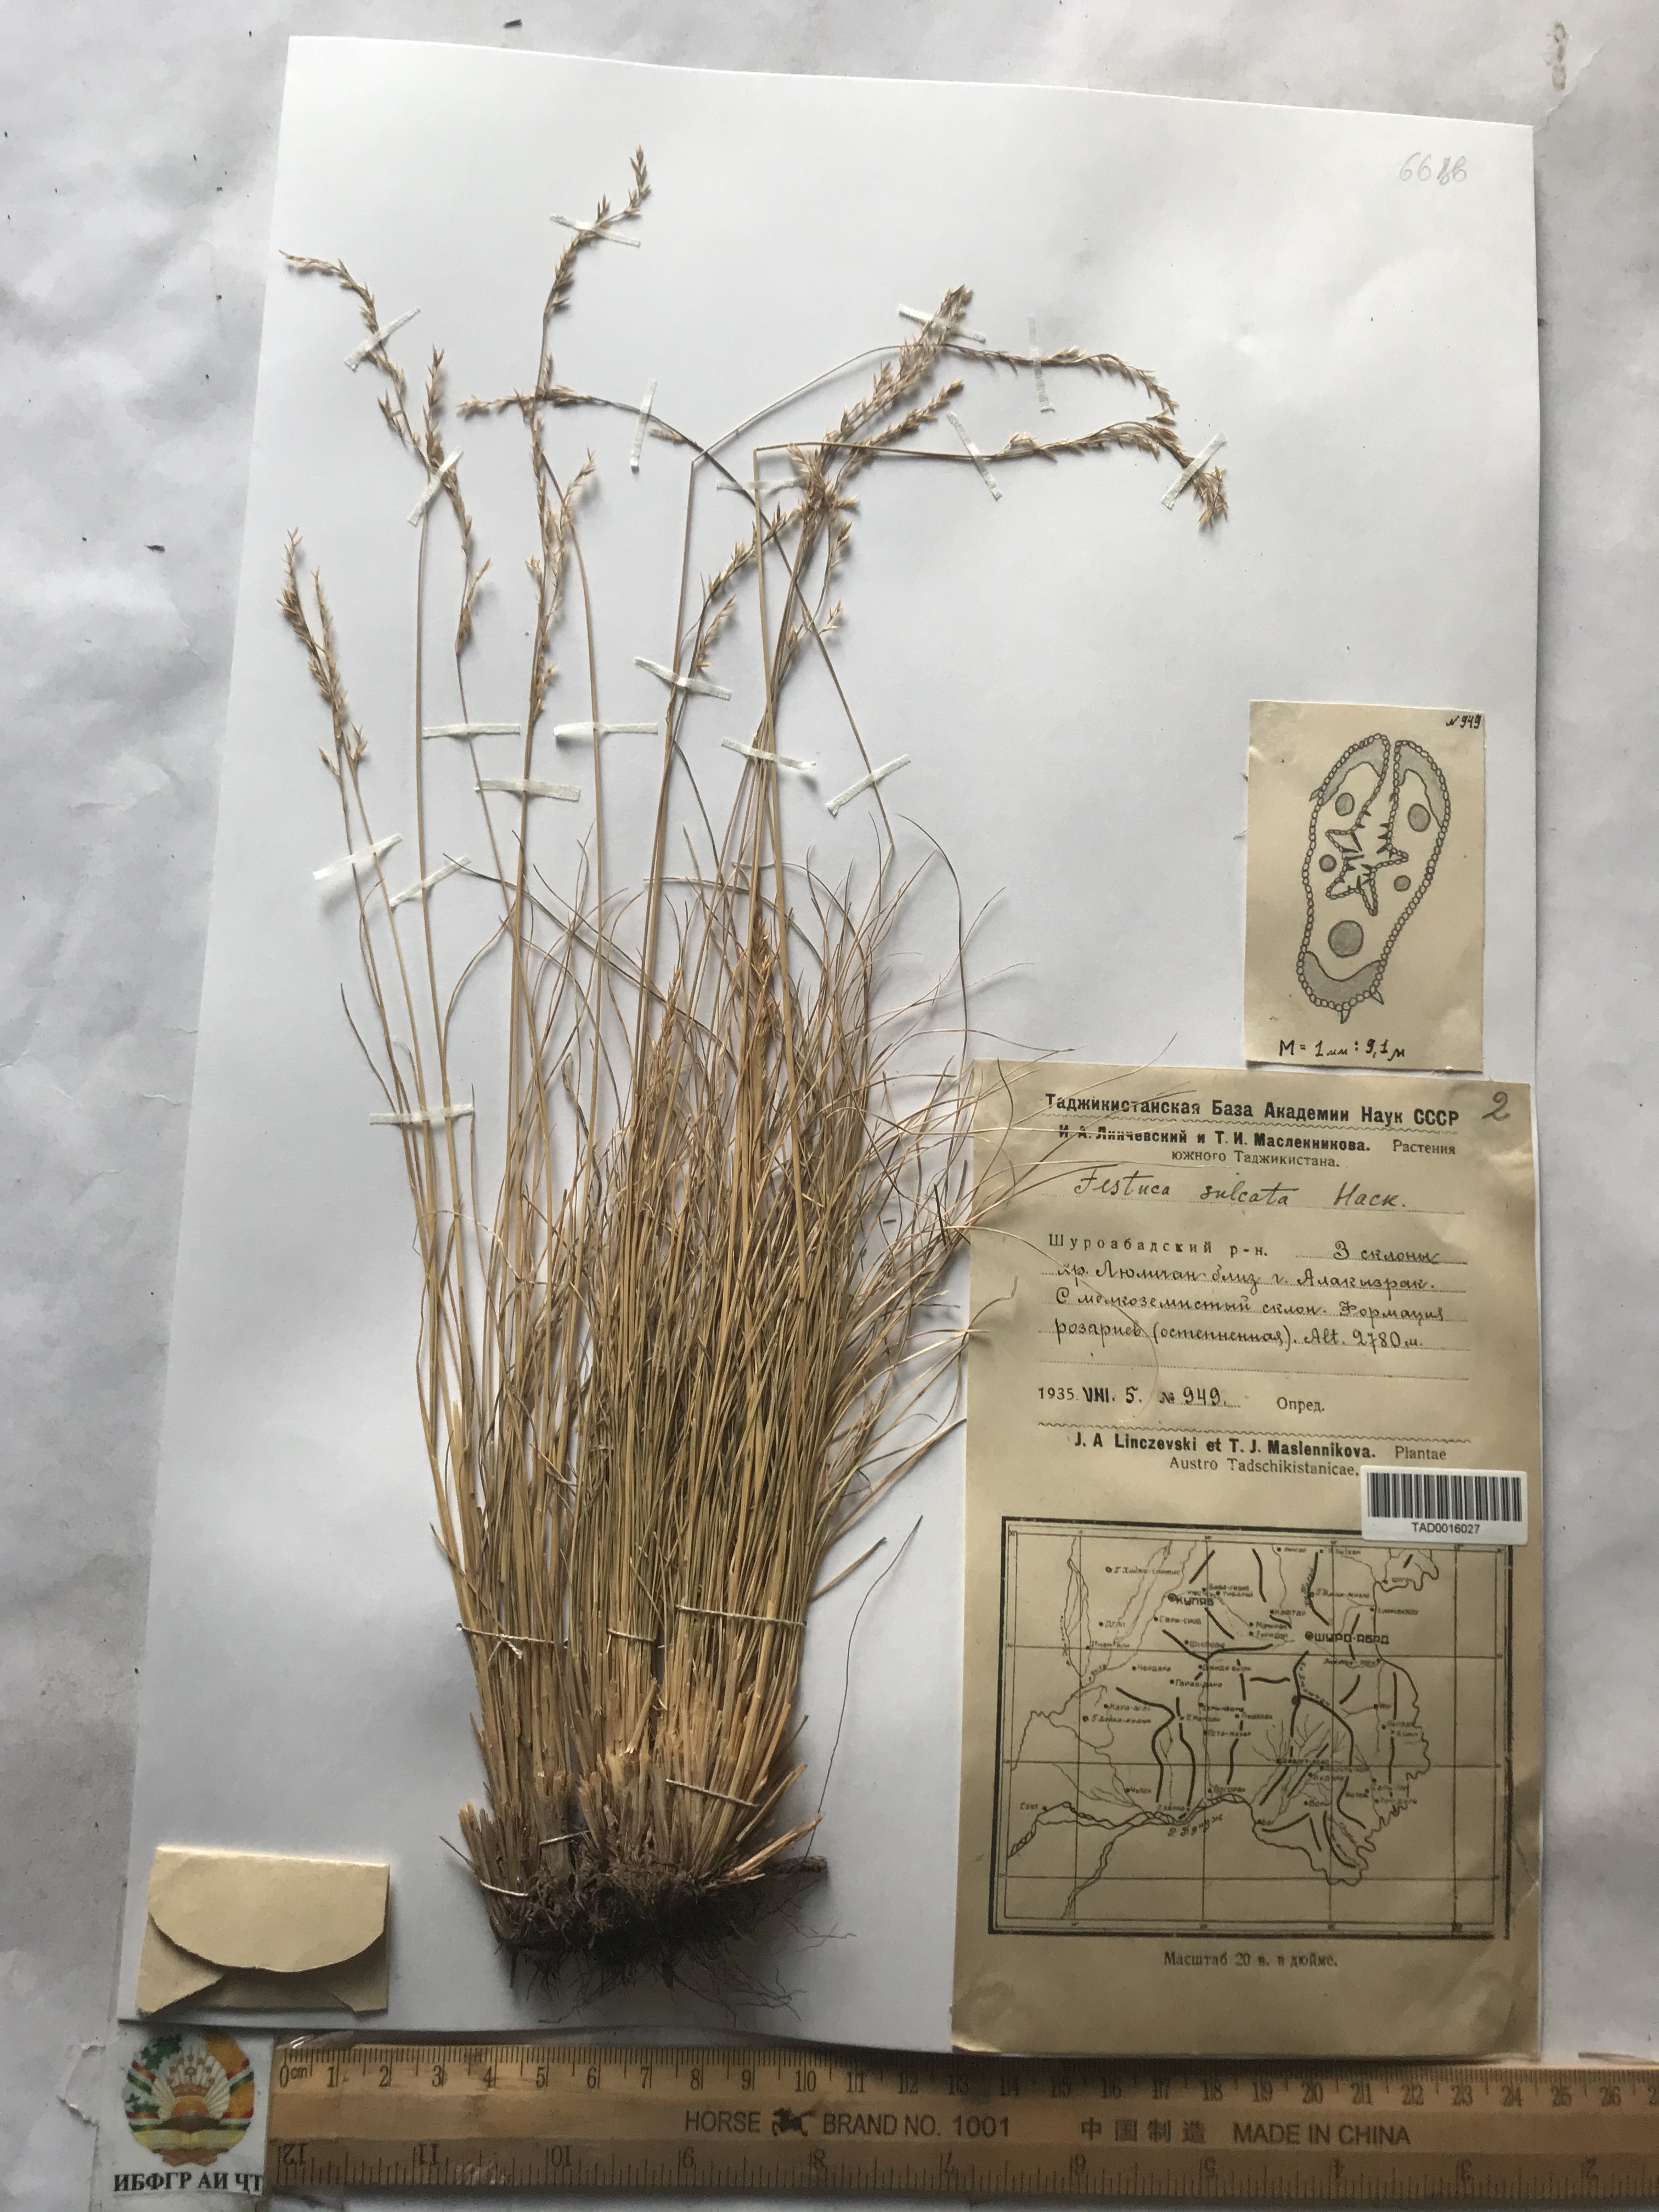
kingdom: Plantae
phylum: Tracheophyta
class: Liliopsida
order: Poales
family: Poaceae
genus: Festuca
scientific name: Festuca sulcata
